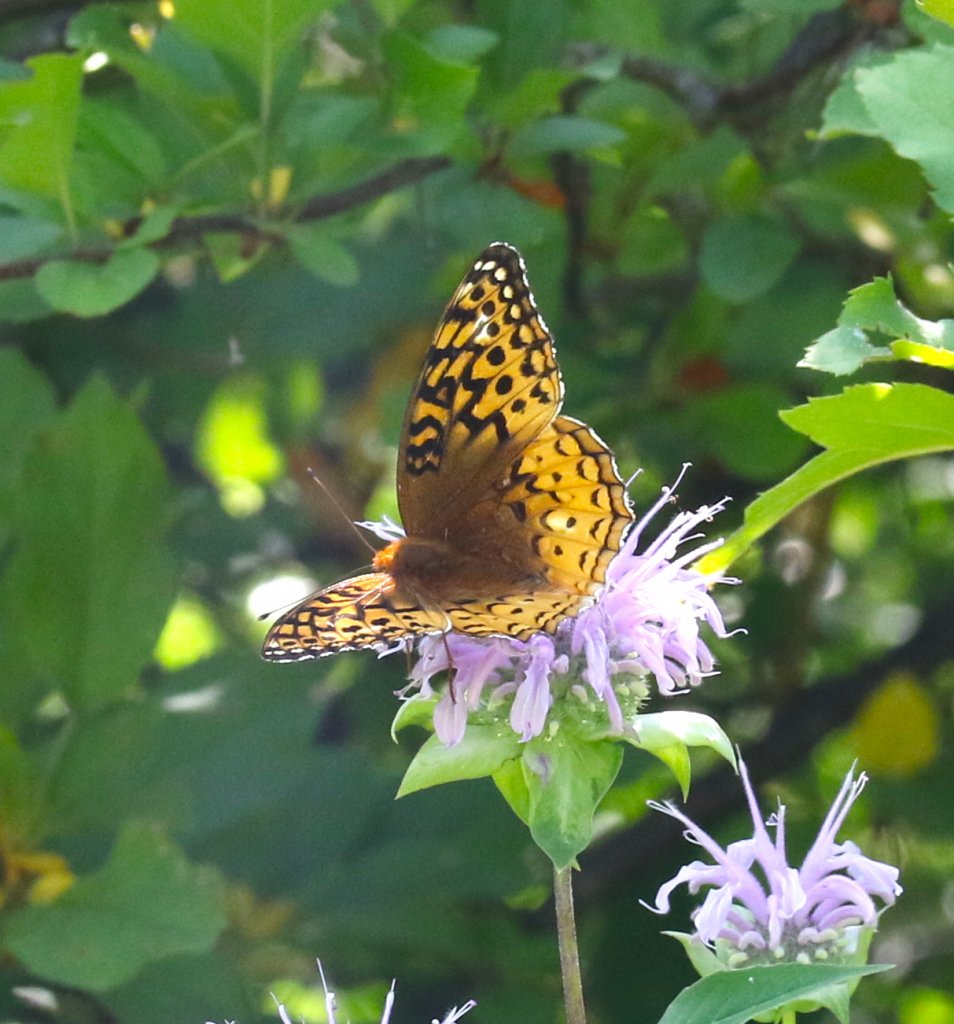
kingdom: Animalia
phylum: Arthropoda
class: Insecta
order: Lepidoptera
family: Nymphalidae
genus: Speyeria
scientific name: Speyeria cybele
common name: Great Spangled Fritillary
